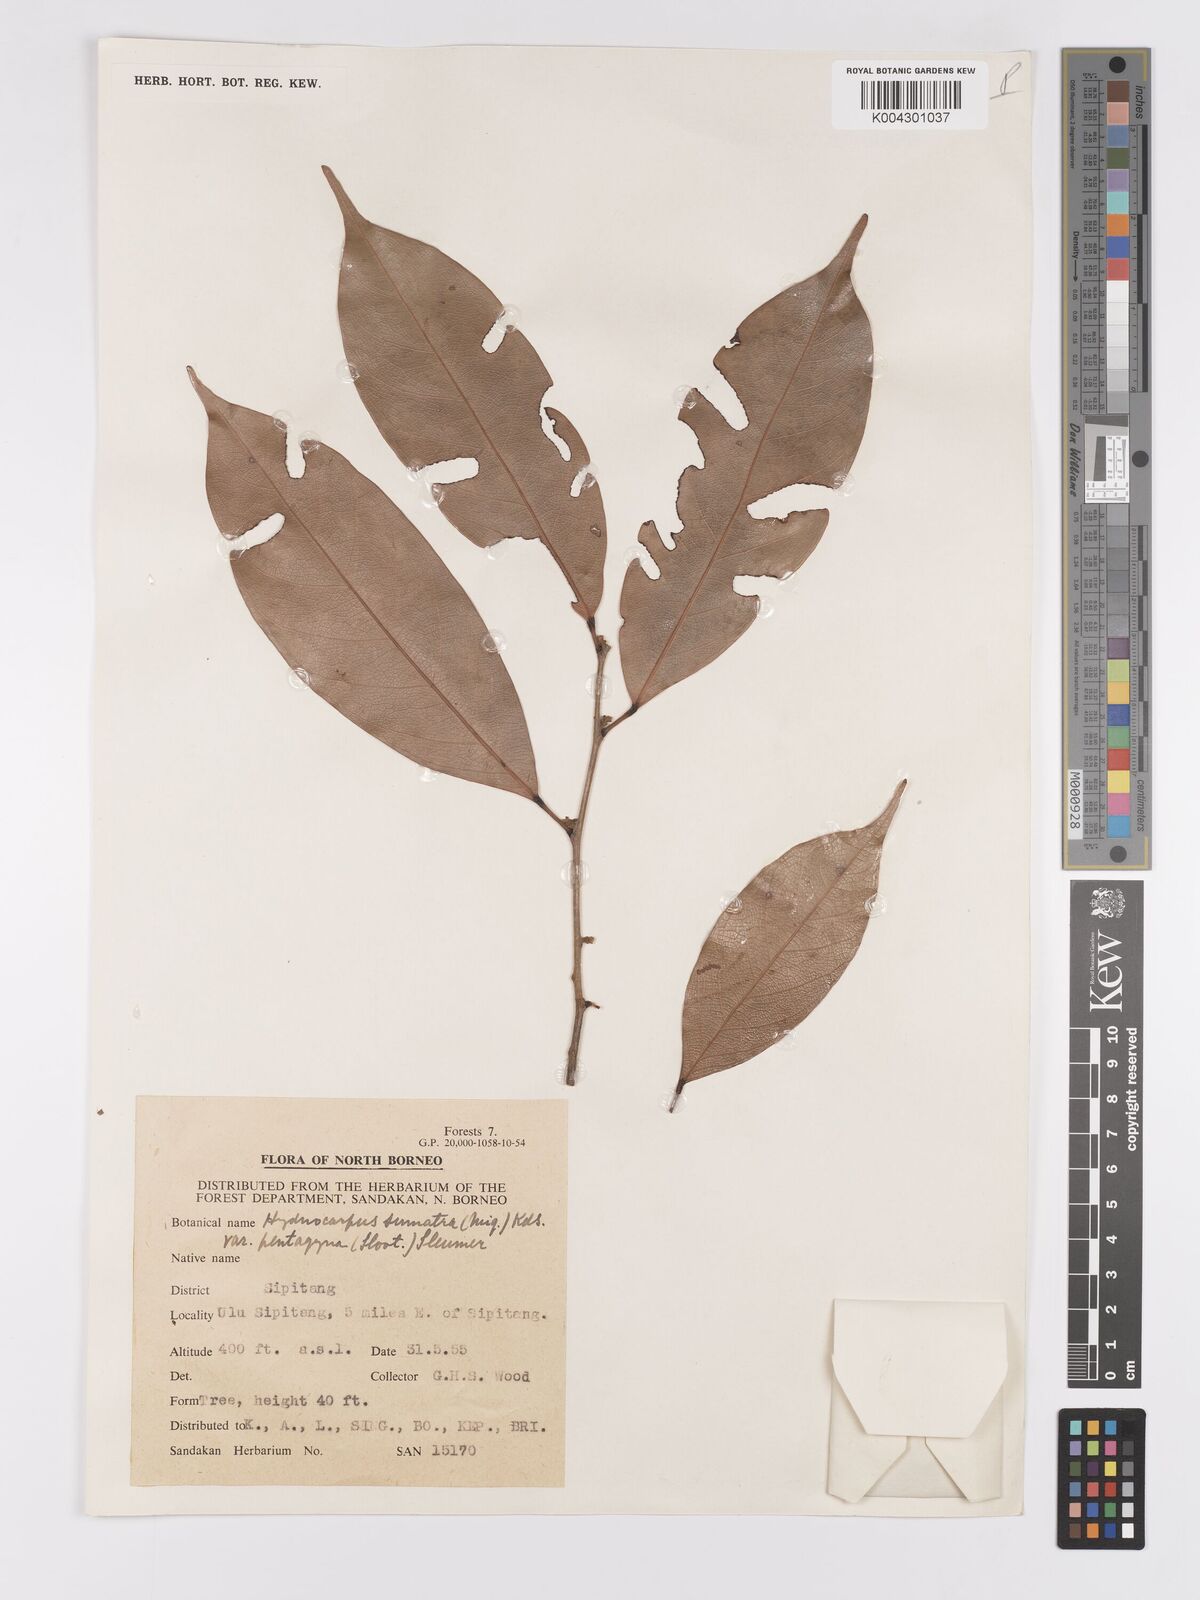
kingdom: Plantae
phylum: Tracheophyta
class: Magnoliopsida
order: Malpighiales
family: Achariaceae
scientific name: Achariaceae
